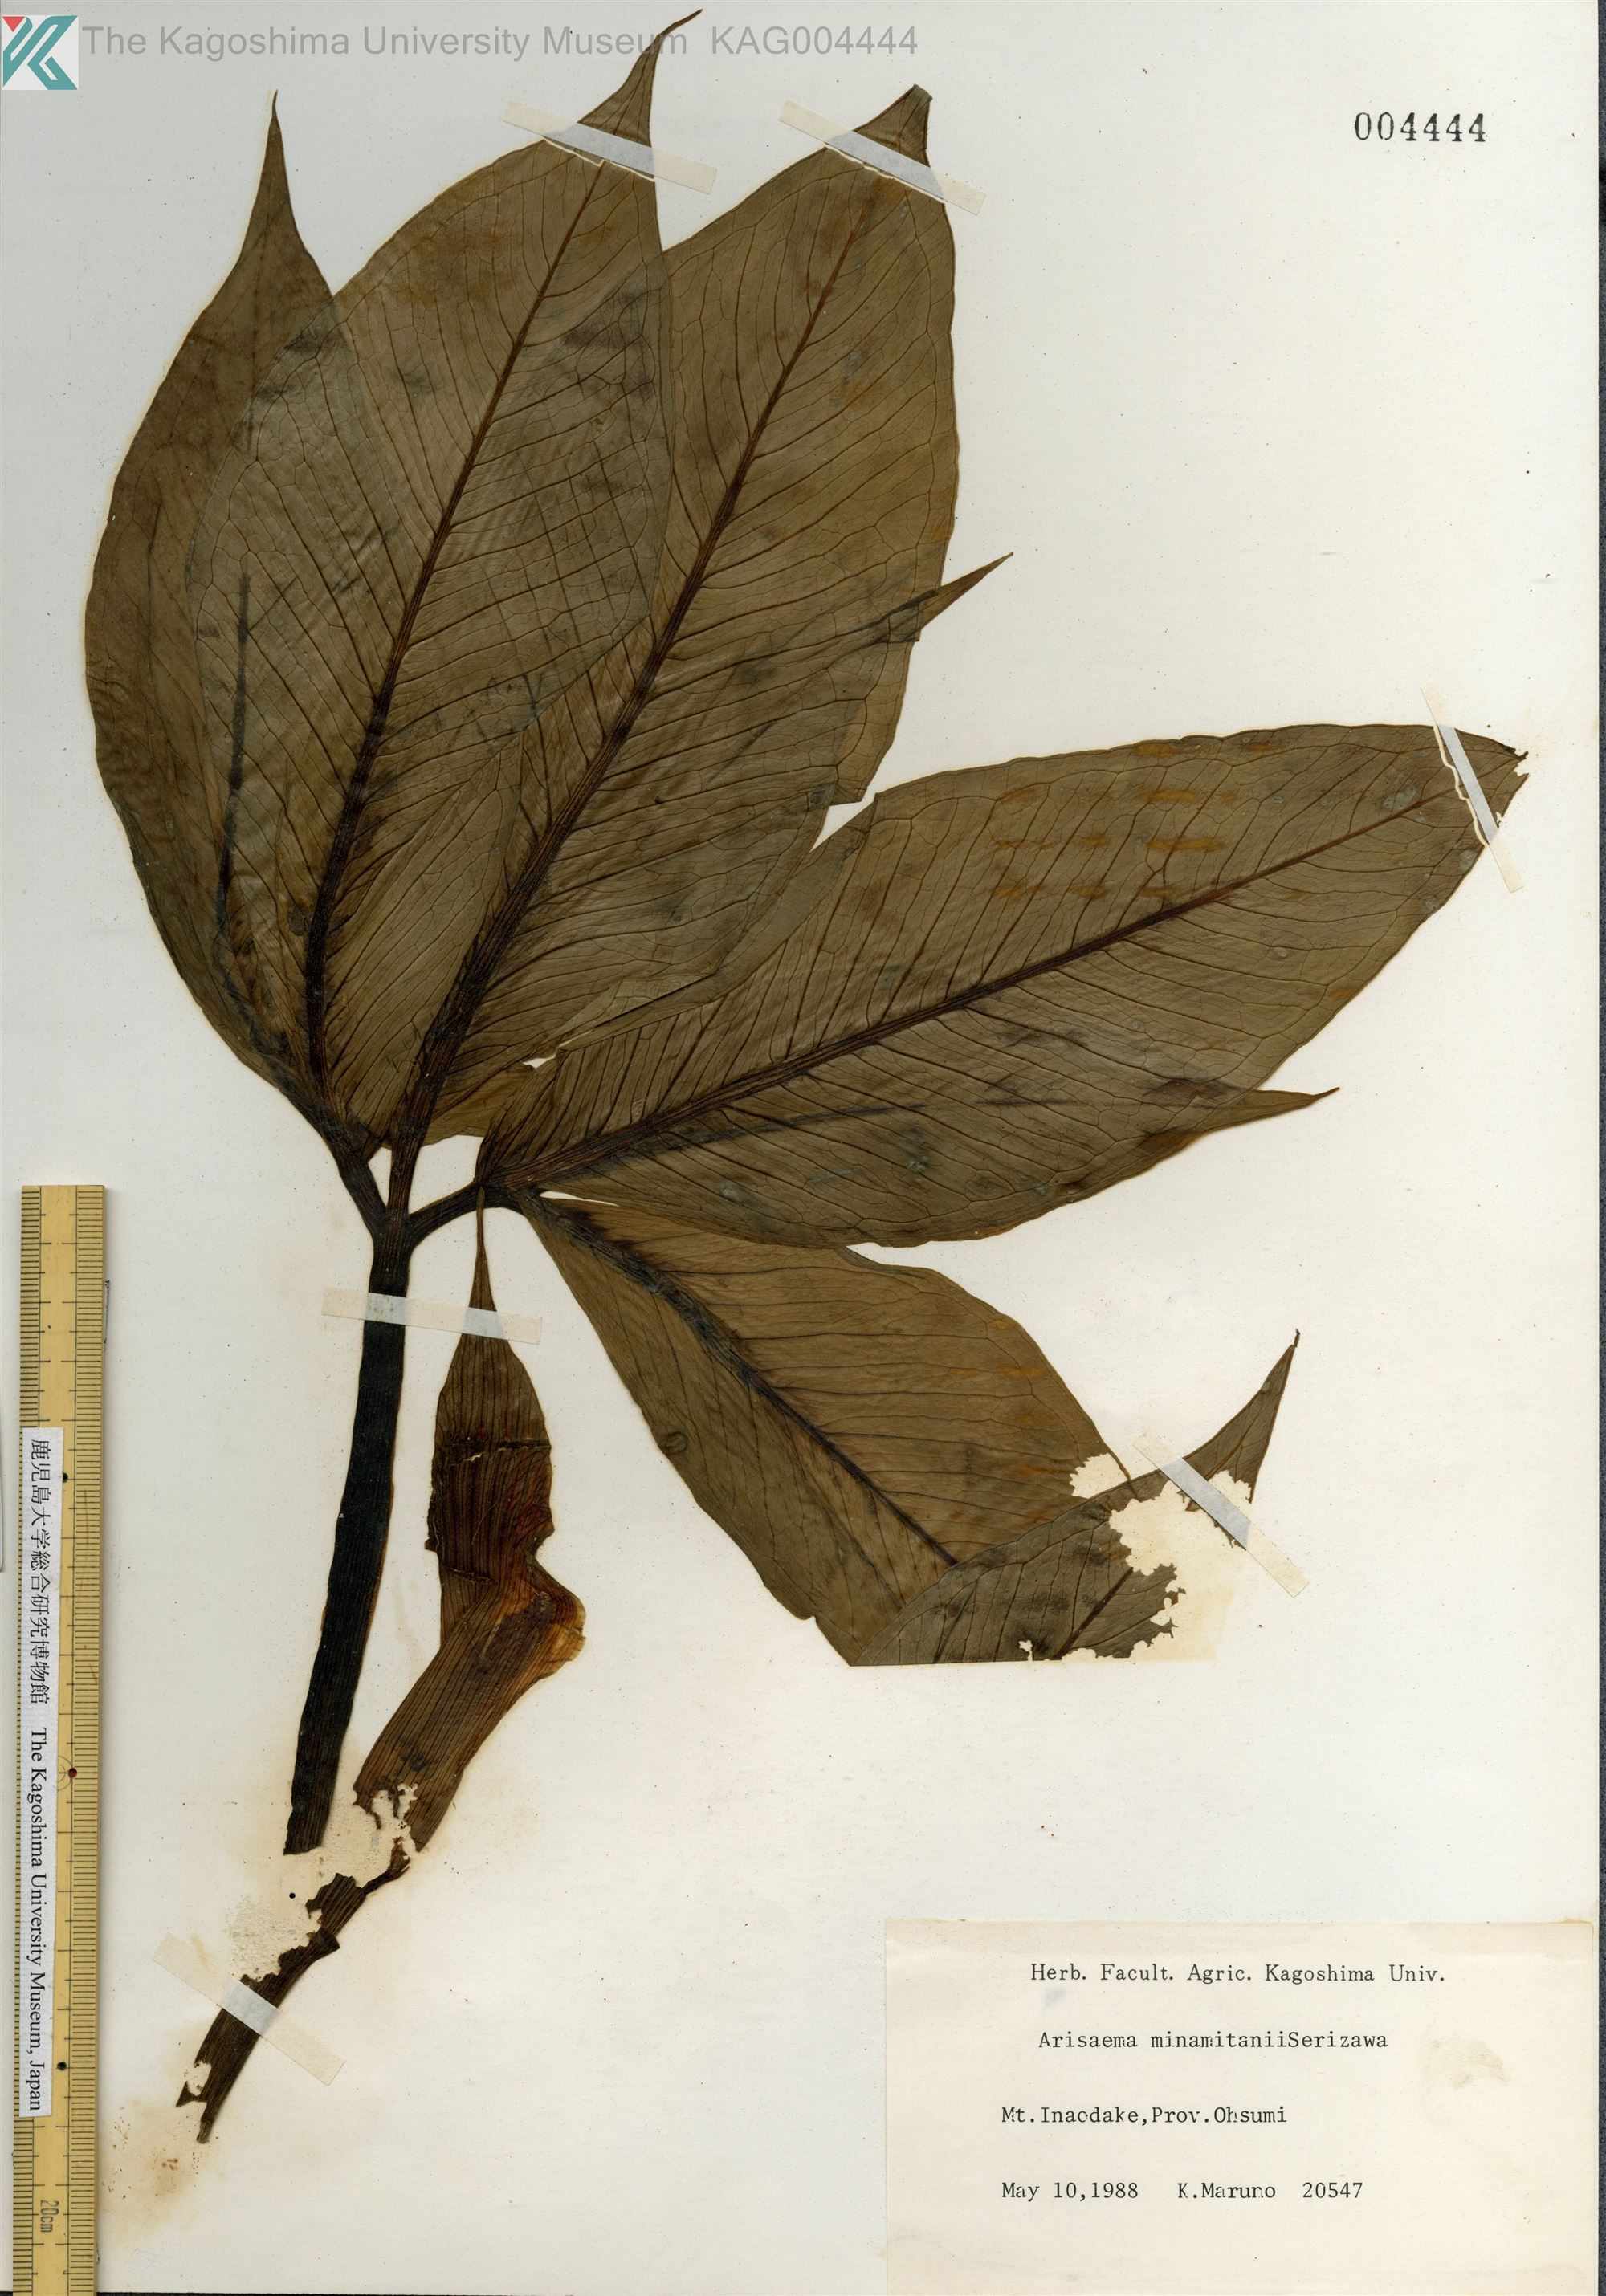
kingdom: Plantae
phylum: Tracheophyta
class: Liliopsida
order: Alismatales
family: Araceae
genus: Arisaema
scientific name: Arisaema minamitanii
